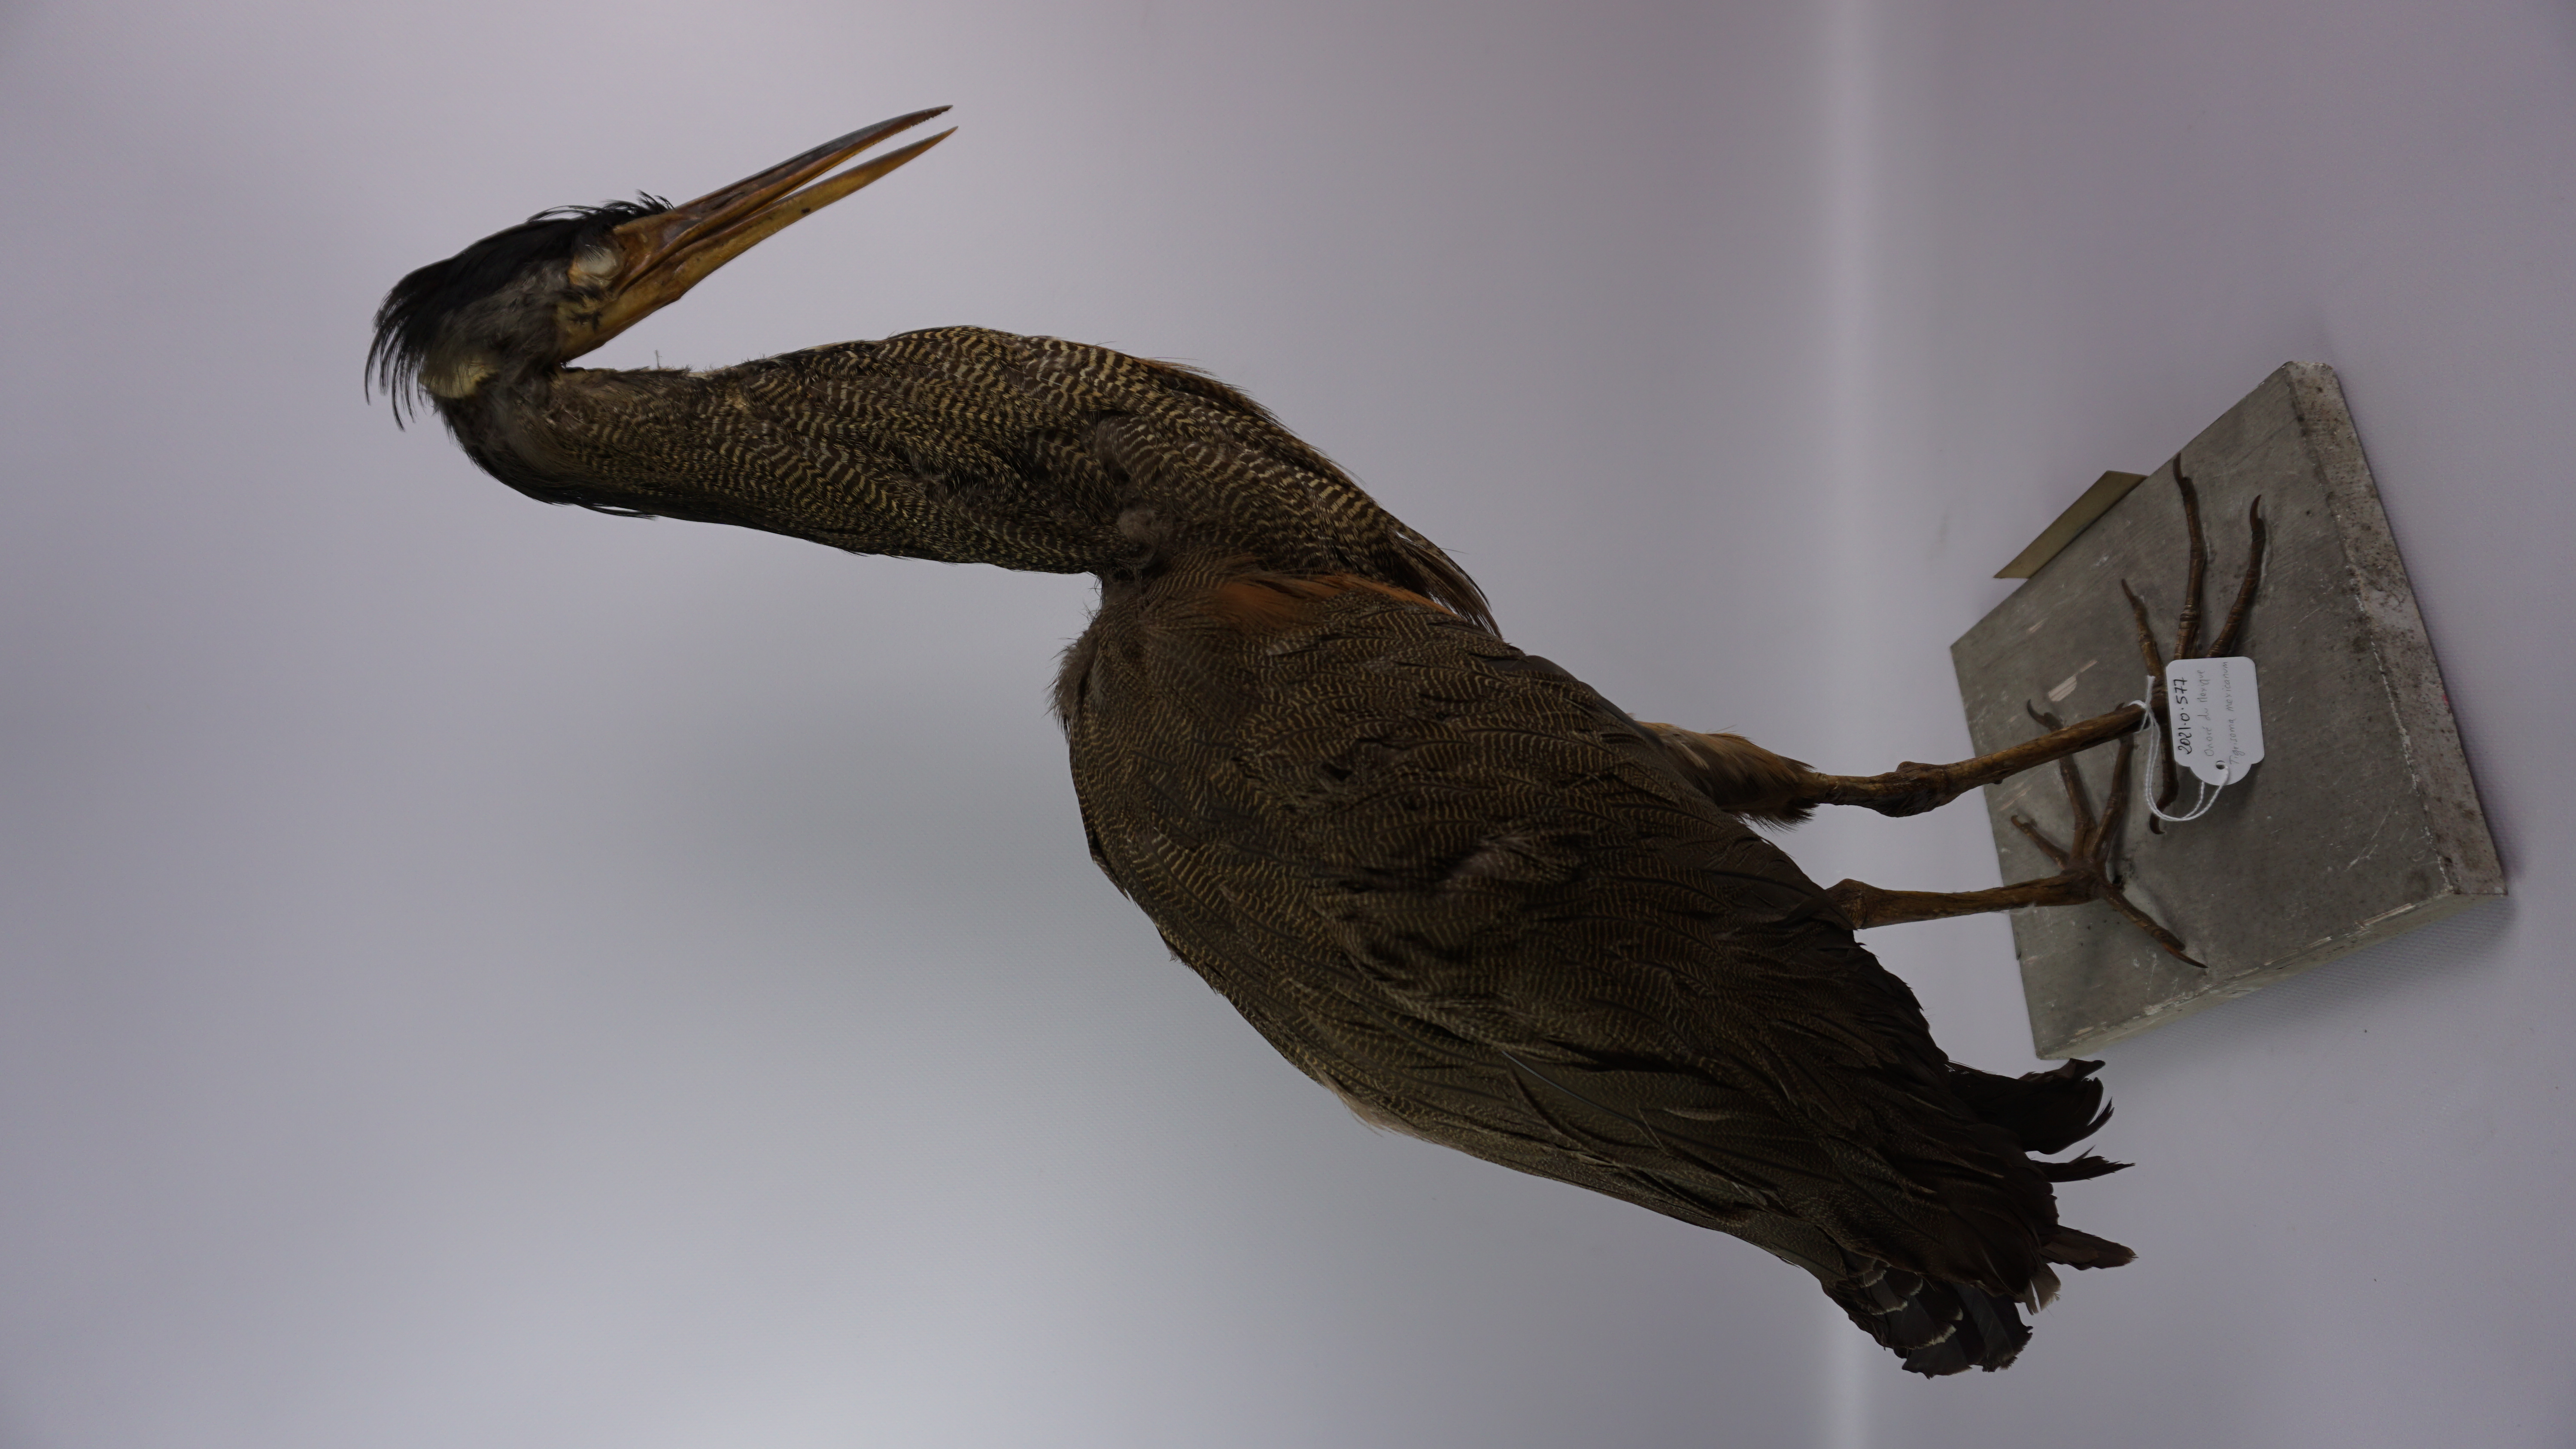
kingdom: Animalia
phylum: Chordata
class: Aves
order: Pelecaniformes
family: Ardeidae
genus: Tigrisoma
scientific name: Tigrisoma mexicanum
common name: Bare-throated tiger-heron
